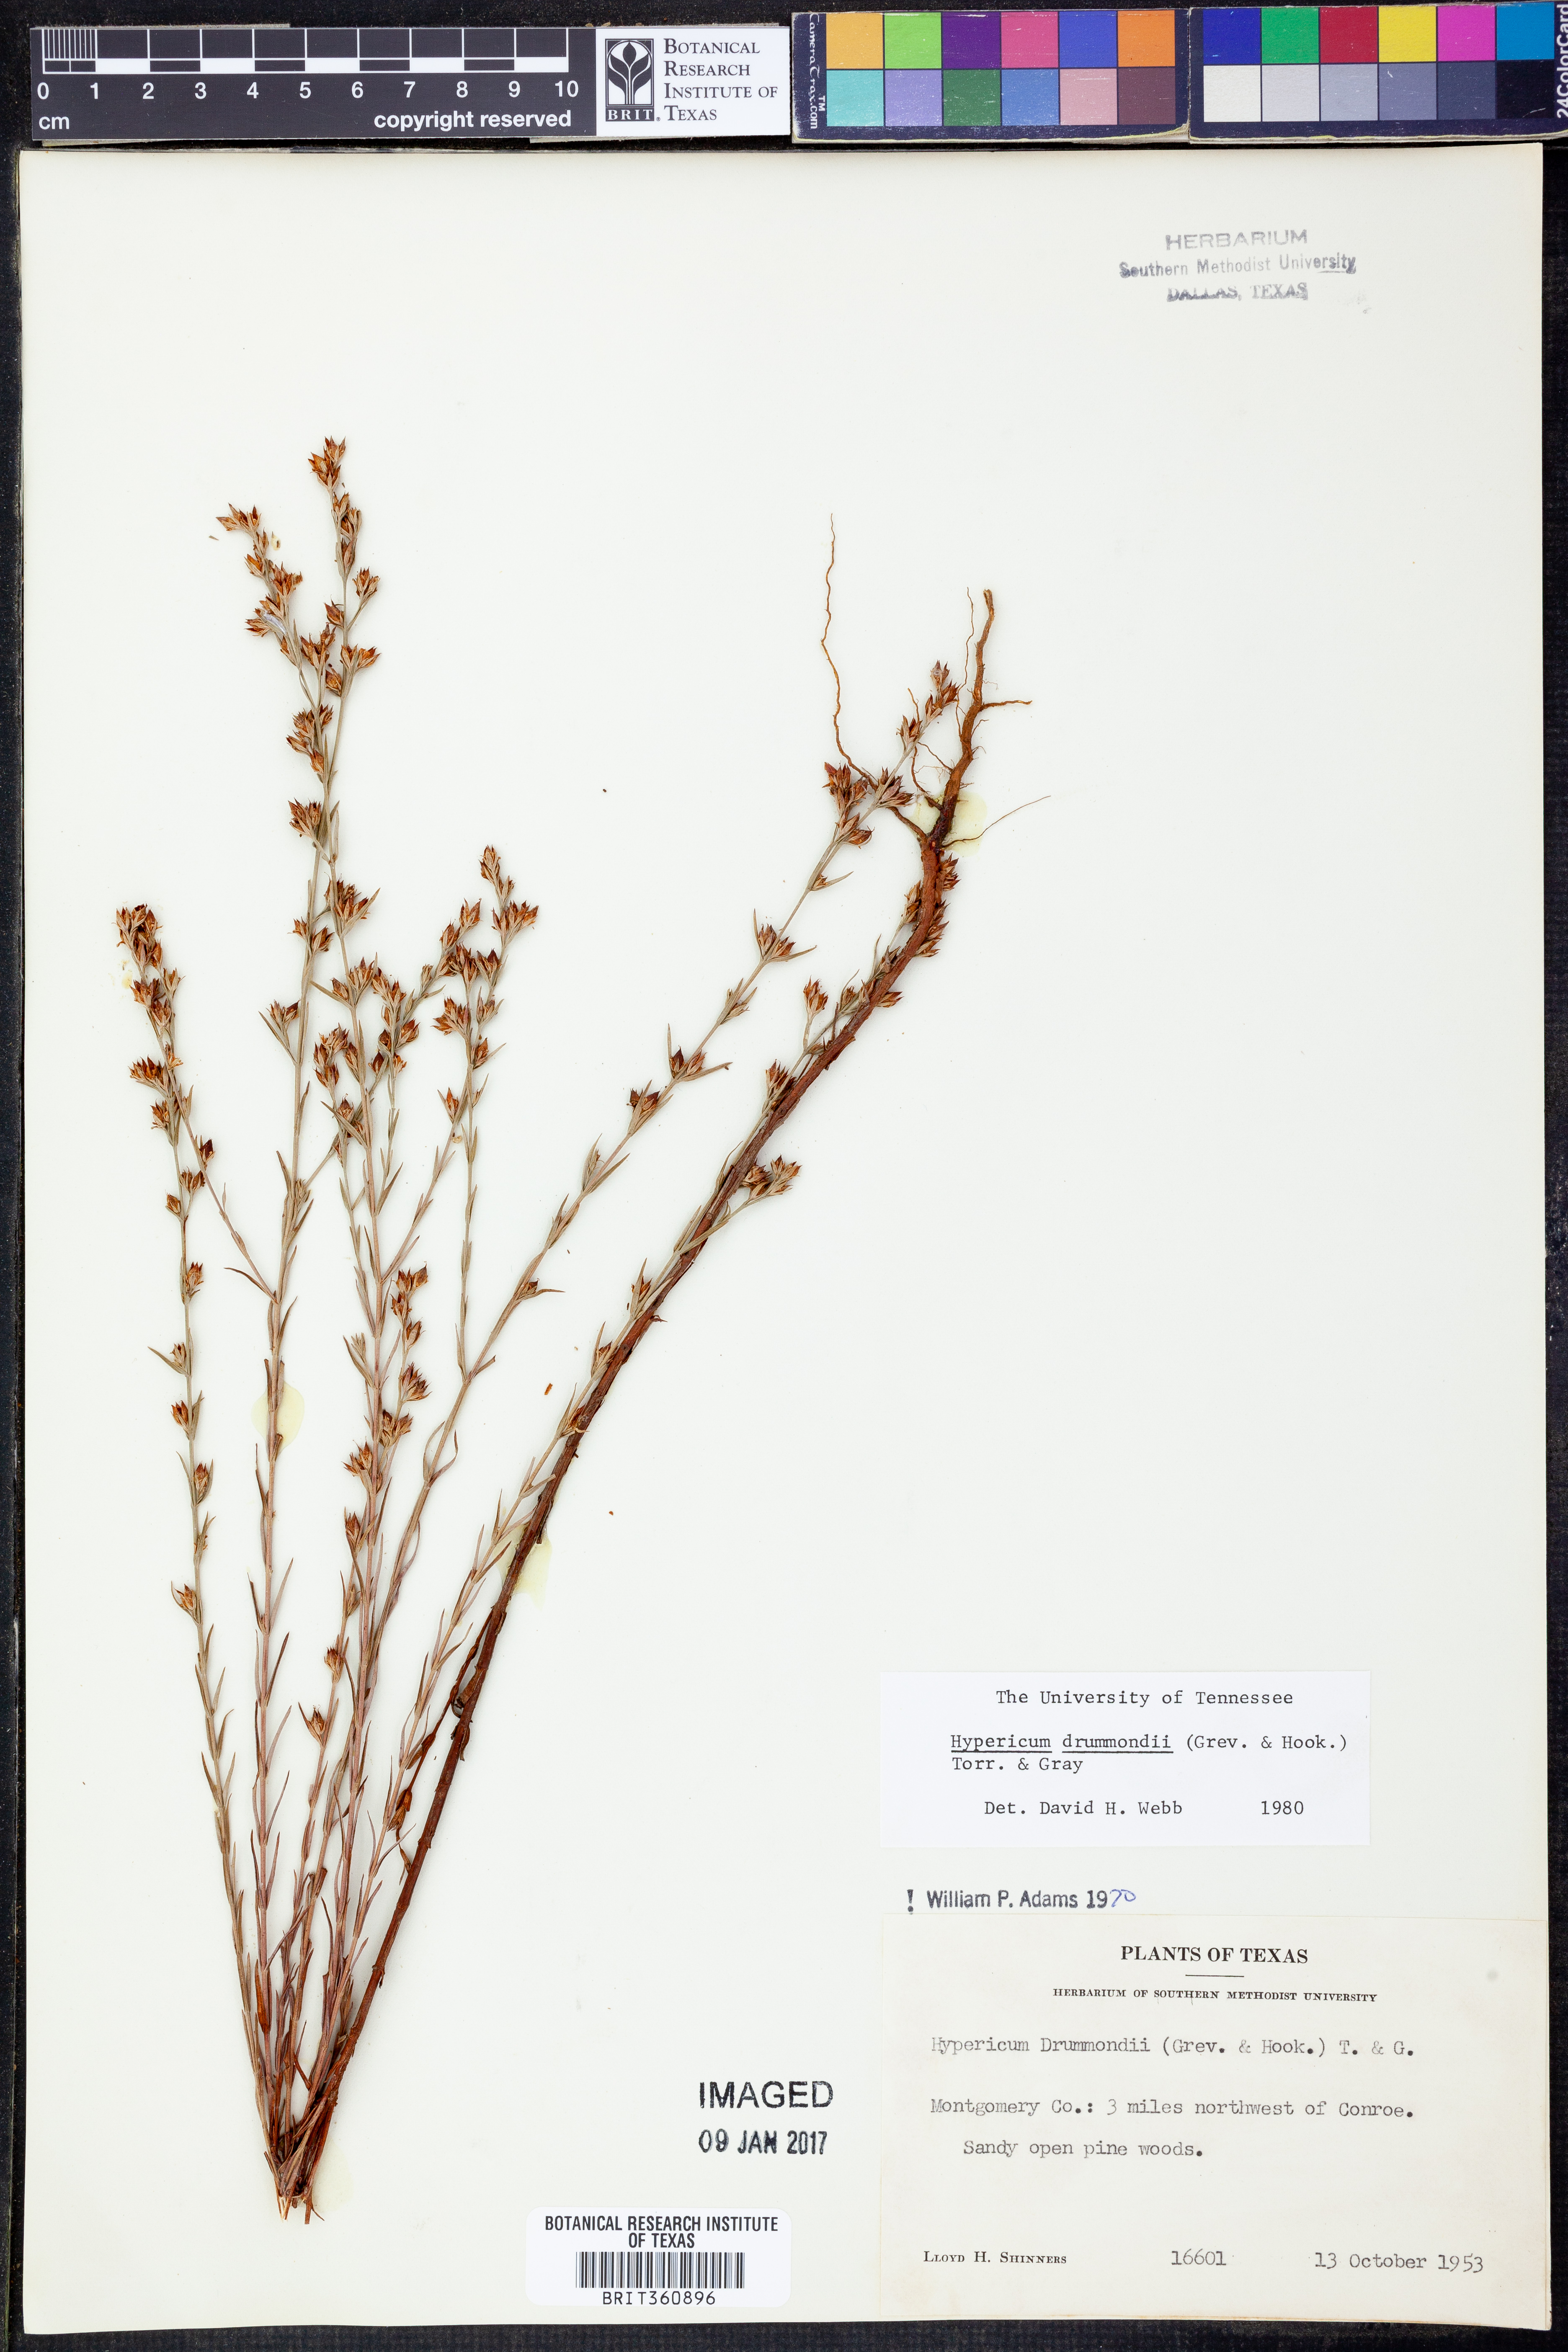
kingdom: Plantae
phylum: Tracheophyta
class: Magnoliopsida
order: Malpighiales
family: Hypericaceae
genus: Hypericum
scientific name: Hypericum drummondii
